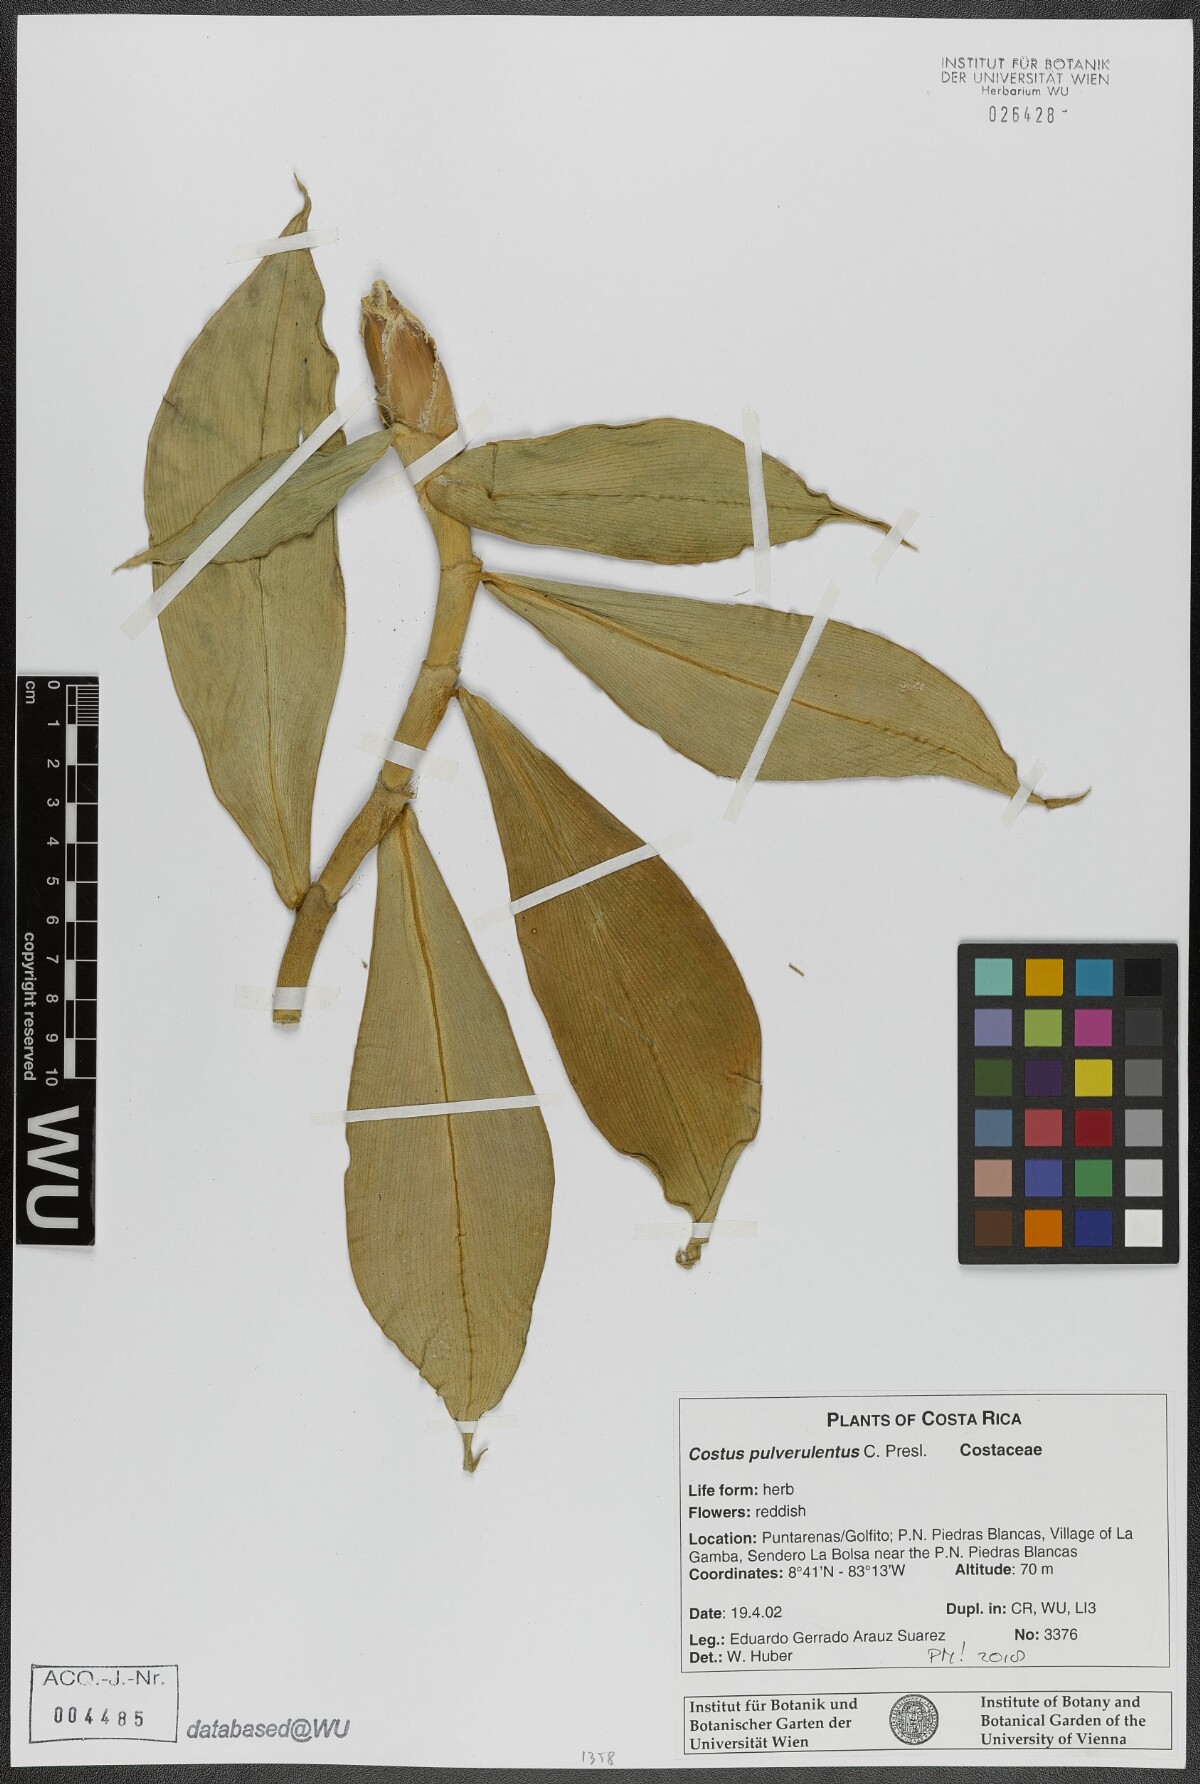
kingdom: Plantae
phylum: Tracheophyta
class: Liliopsida
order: Zingiberales
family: Costaceae
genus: Costus
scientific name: Costus pulverulentus
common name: Spiral ginger
